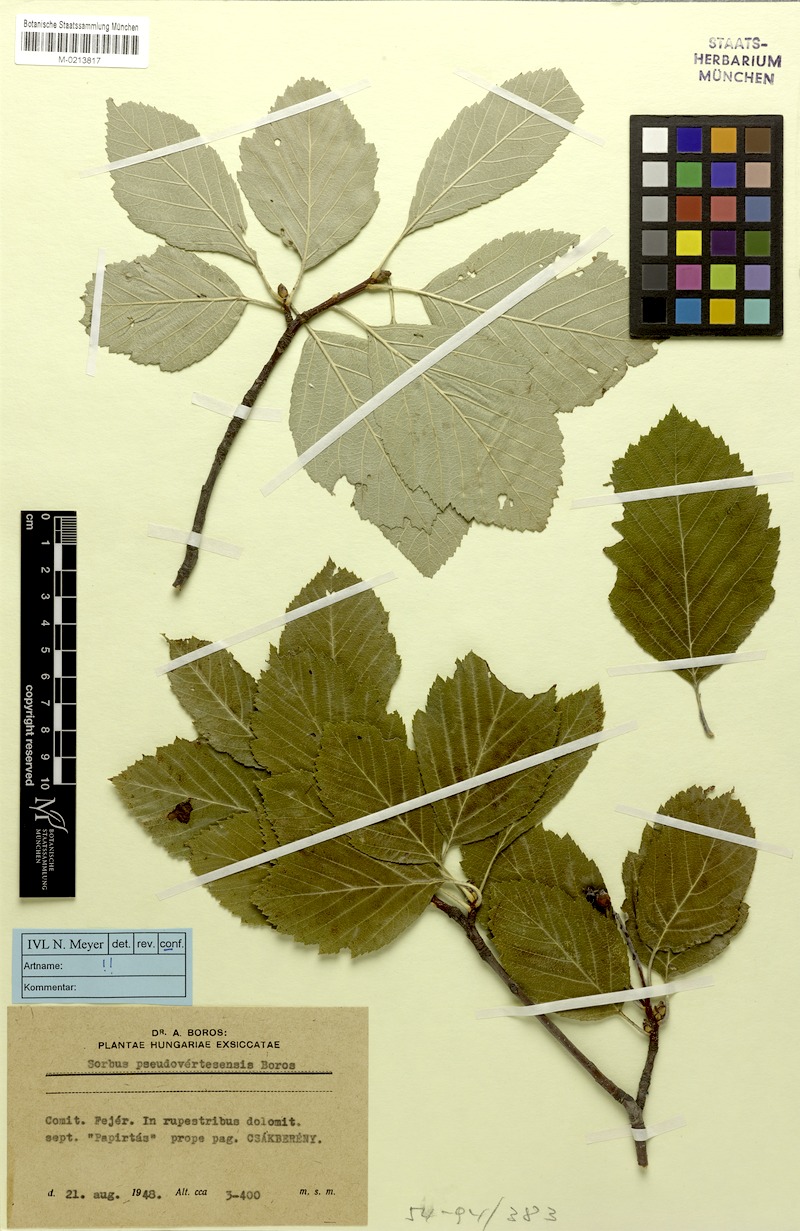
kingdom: Plantae
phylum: Tracheophyta
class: Magnoliopsida
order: Rosales
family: Rosaceae
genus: Karpatiosorbus
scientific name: Karpatiosorbus pseudovertesensis
